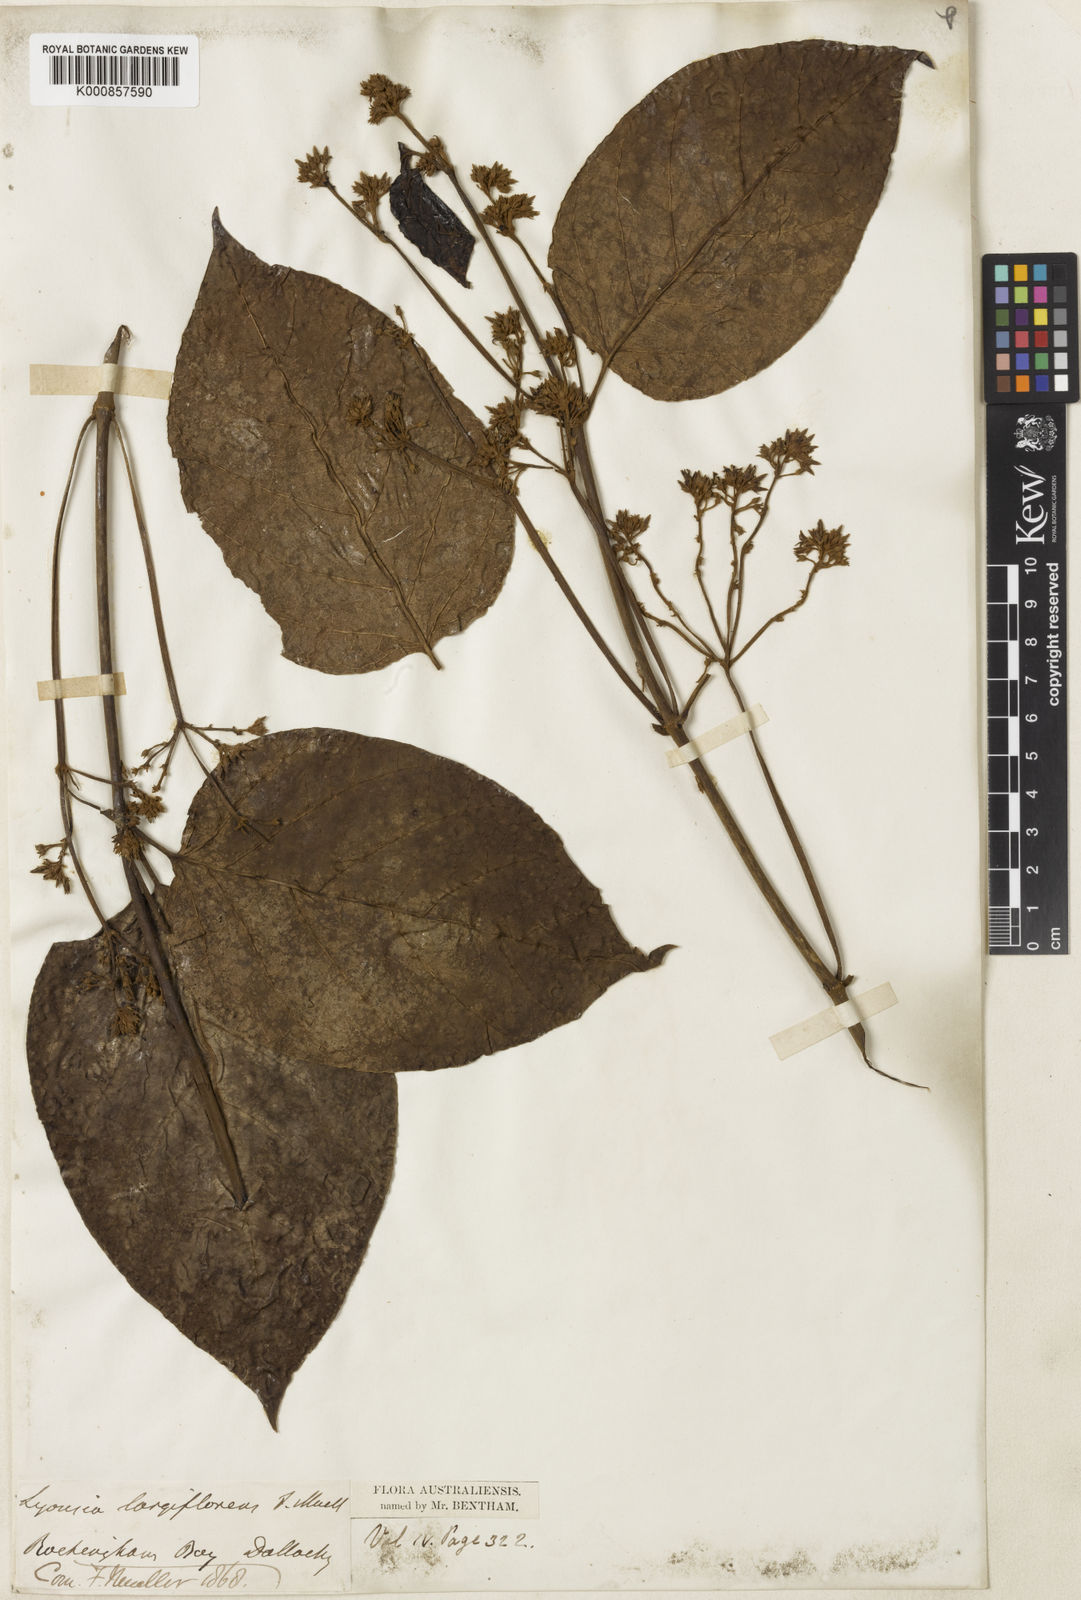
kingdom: Plantae
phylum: Tracheophyta
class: Magnoliopsida
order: Gentianales
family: Apocynaceae
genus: Parsonsia
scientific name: Parsonsia largiflorens
